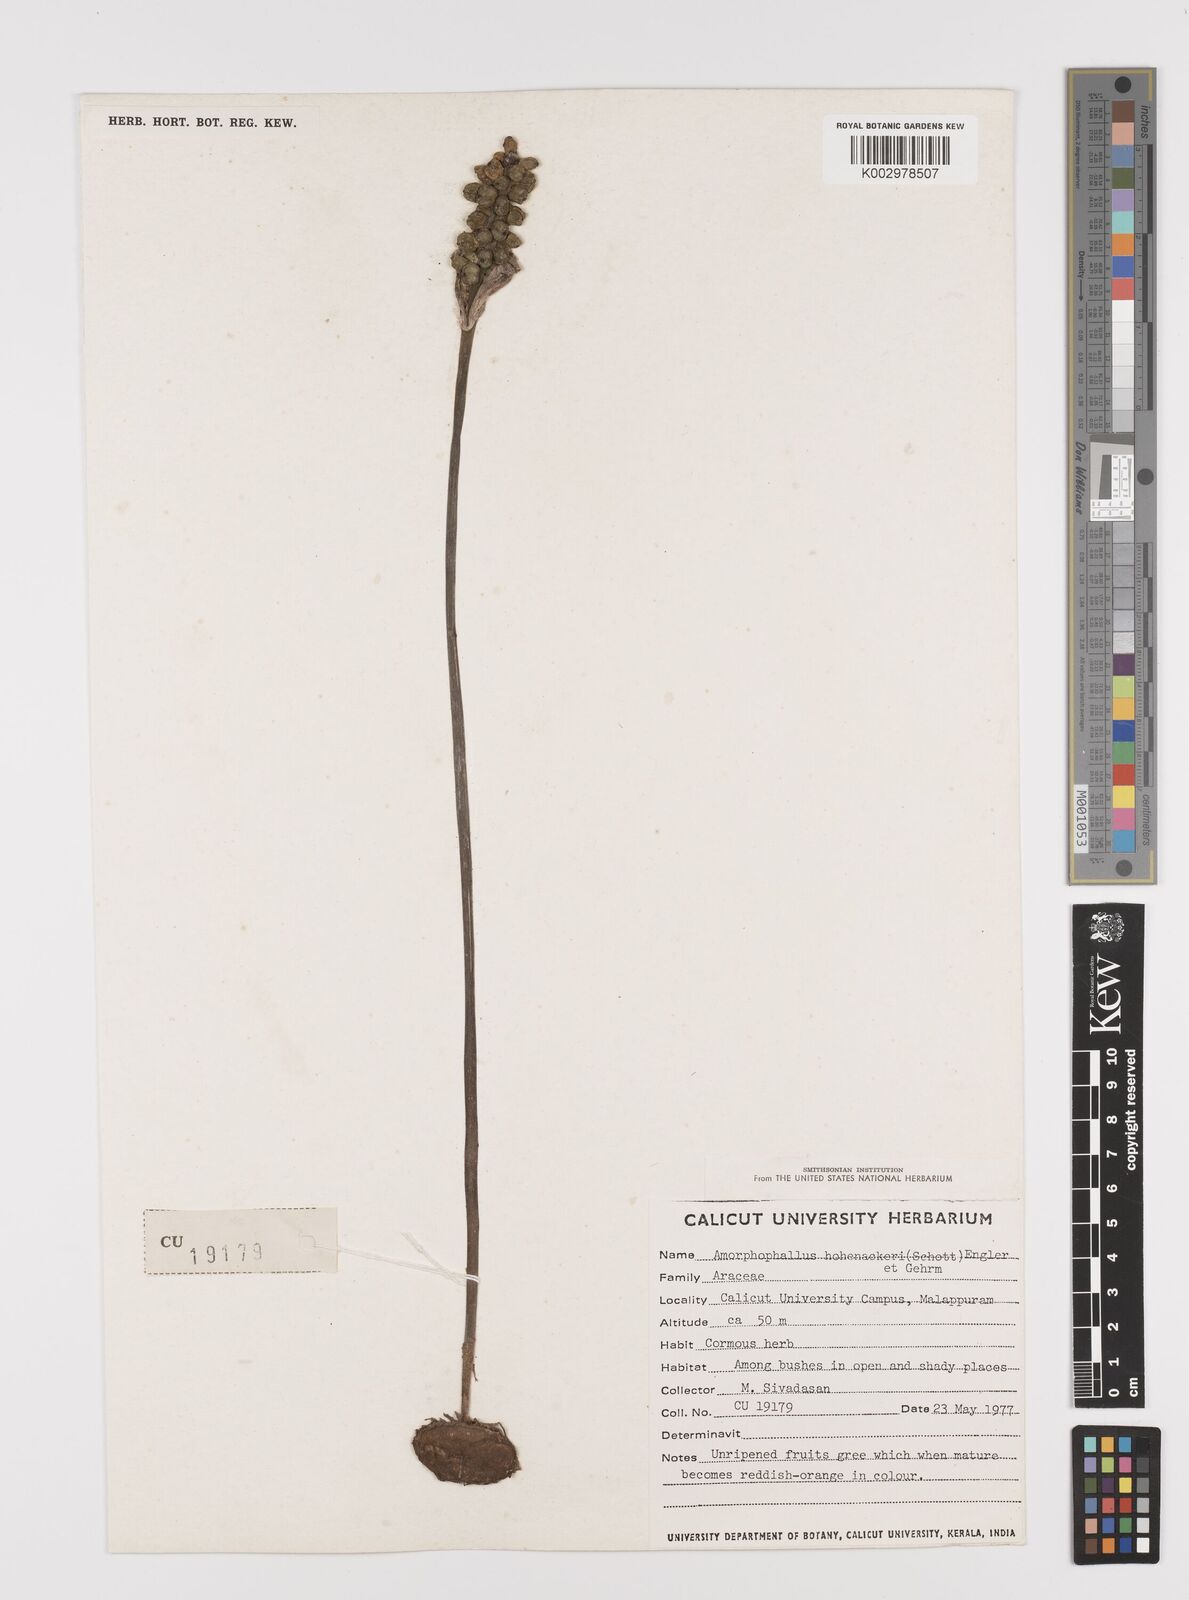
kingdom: Plantae
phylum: Tracheophyta
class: Liliopsida
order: Alismatales
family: Araceae
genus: Amorphophallus
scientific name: Amorphophallus hohenackeri
